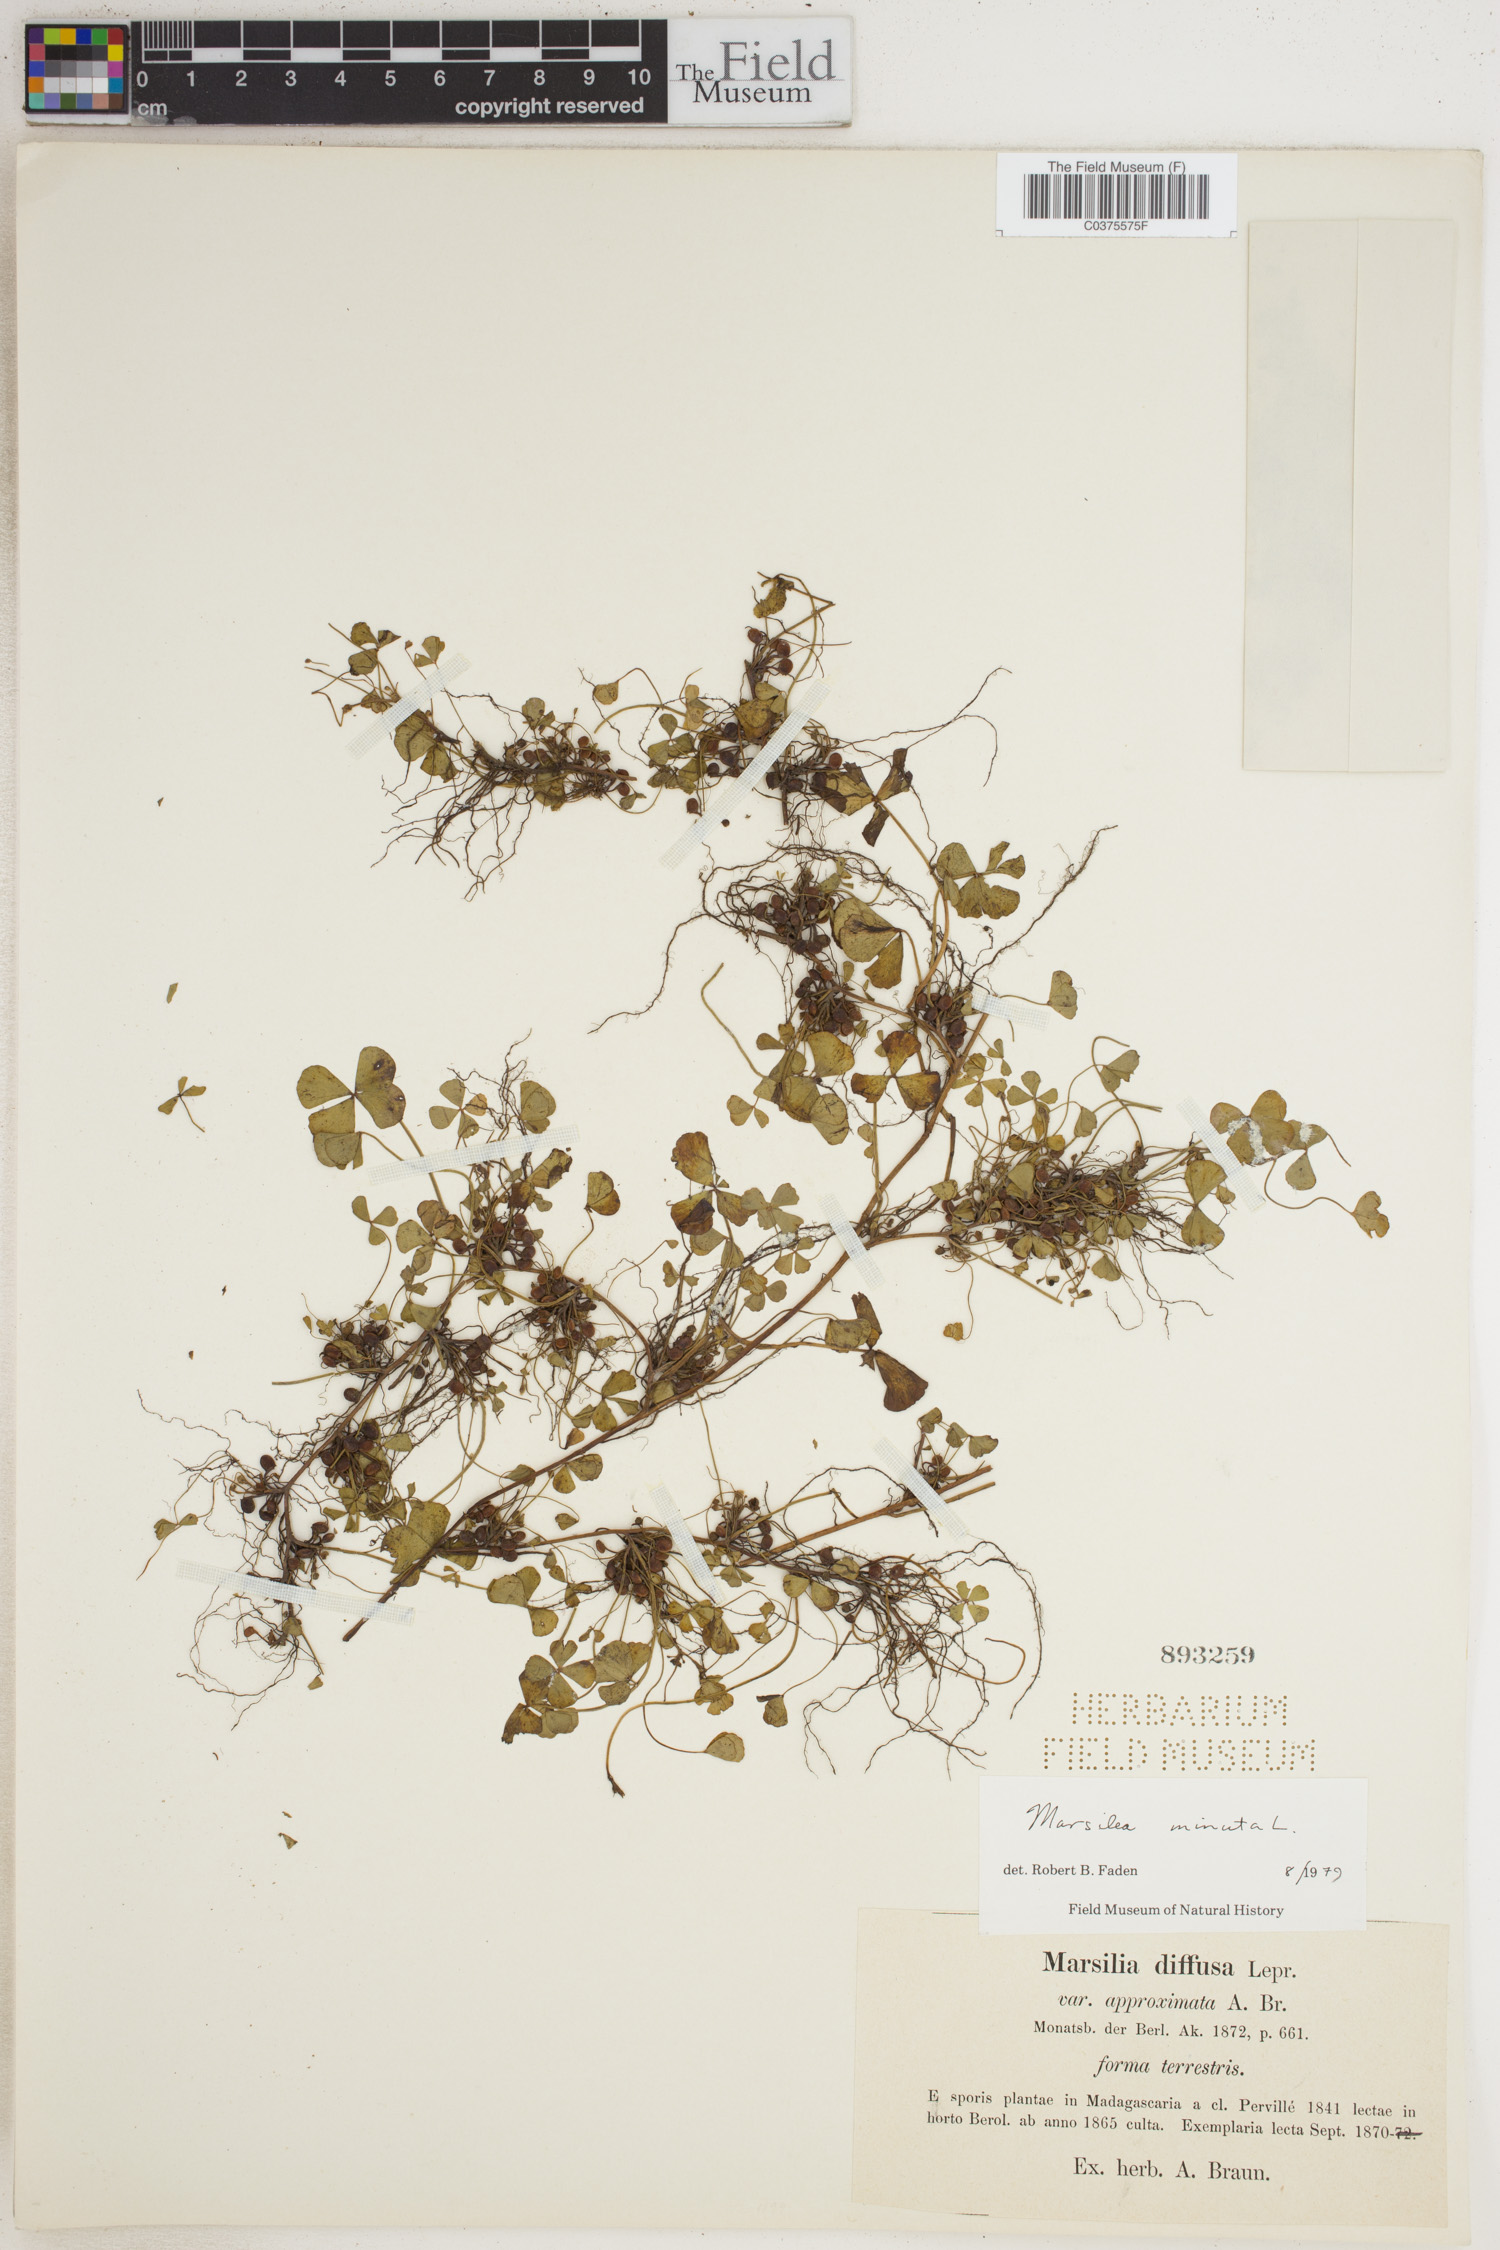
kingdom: Plantae
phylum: Tracheophyta
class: Polypodiopsida
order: Salviniales
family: Marsileaceae
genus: Marsilea
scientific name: Marsilea minuta
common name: Dwarf waterclover
